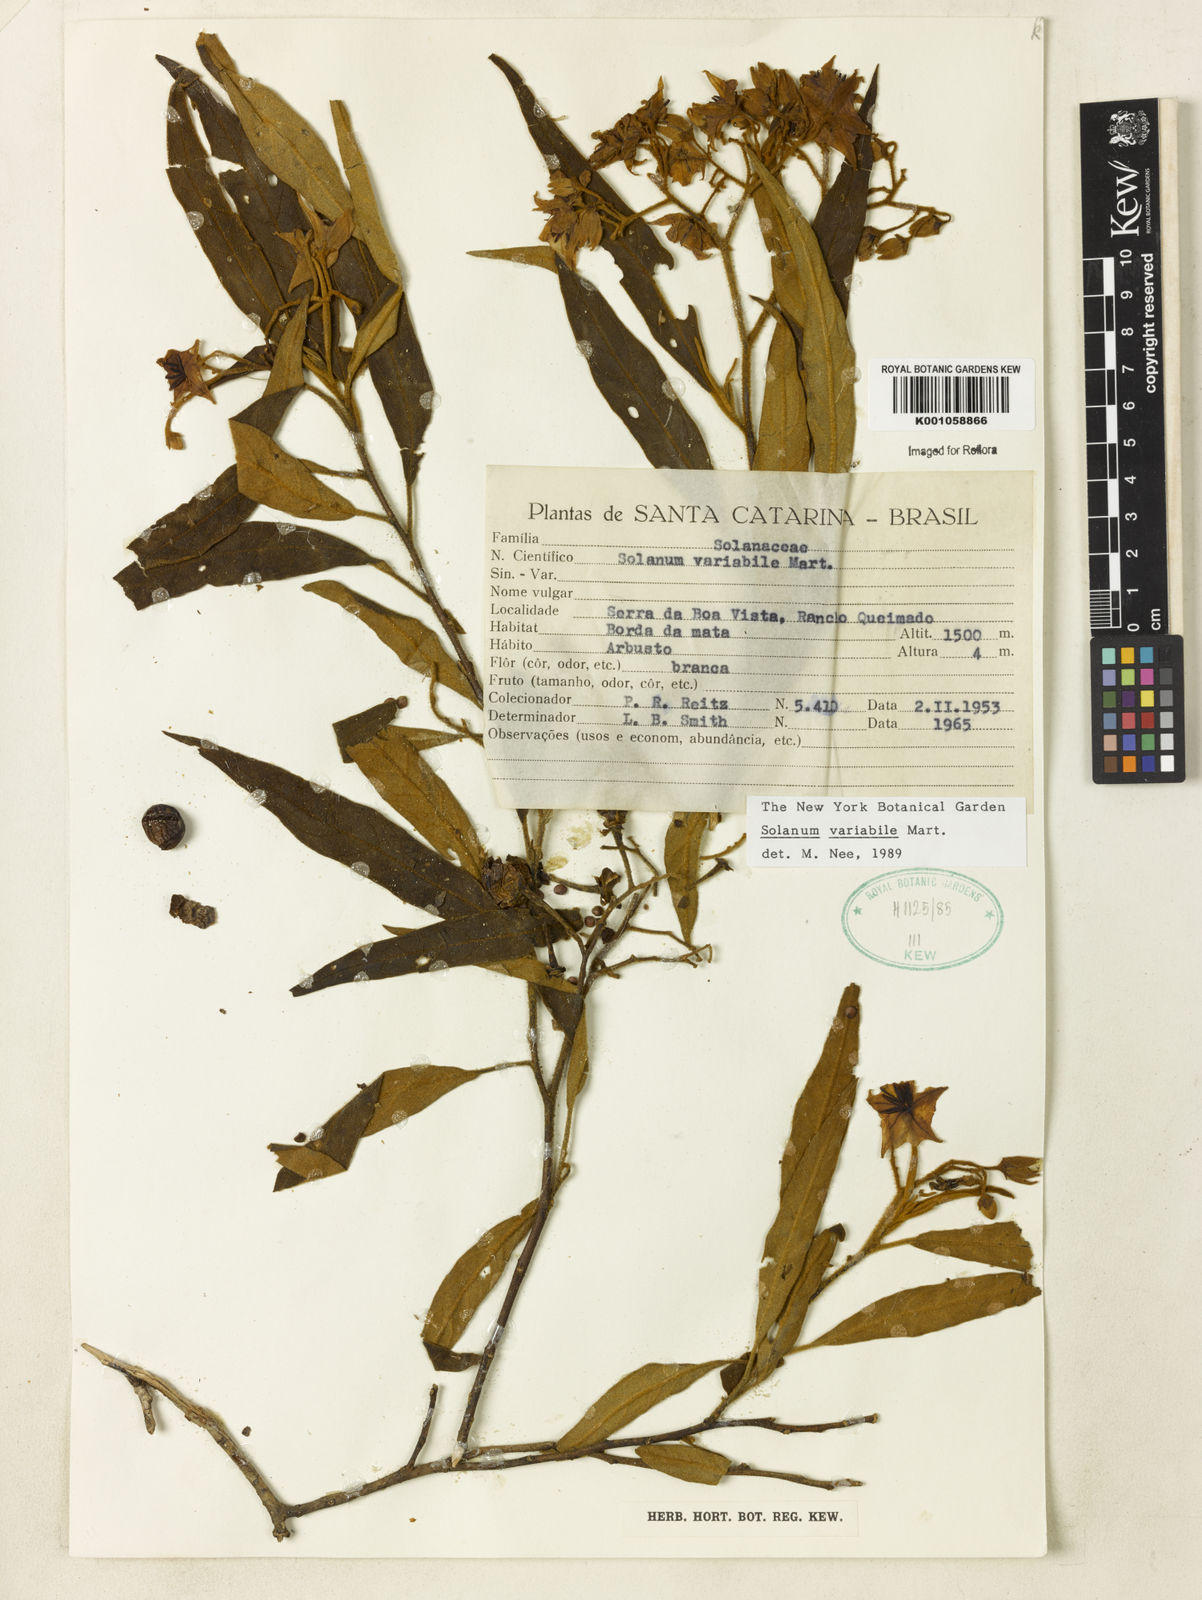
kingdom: Plantae
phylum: Tracheophyta
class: Magnoliopsida
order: Solanales
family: Solanaceae
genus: Solanum
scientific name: Solanum variabile
